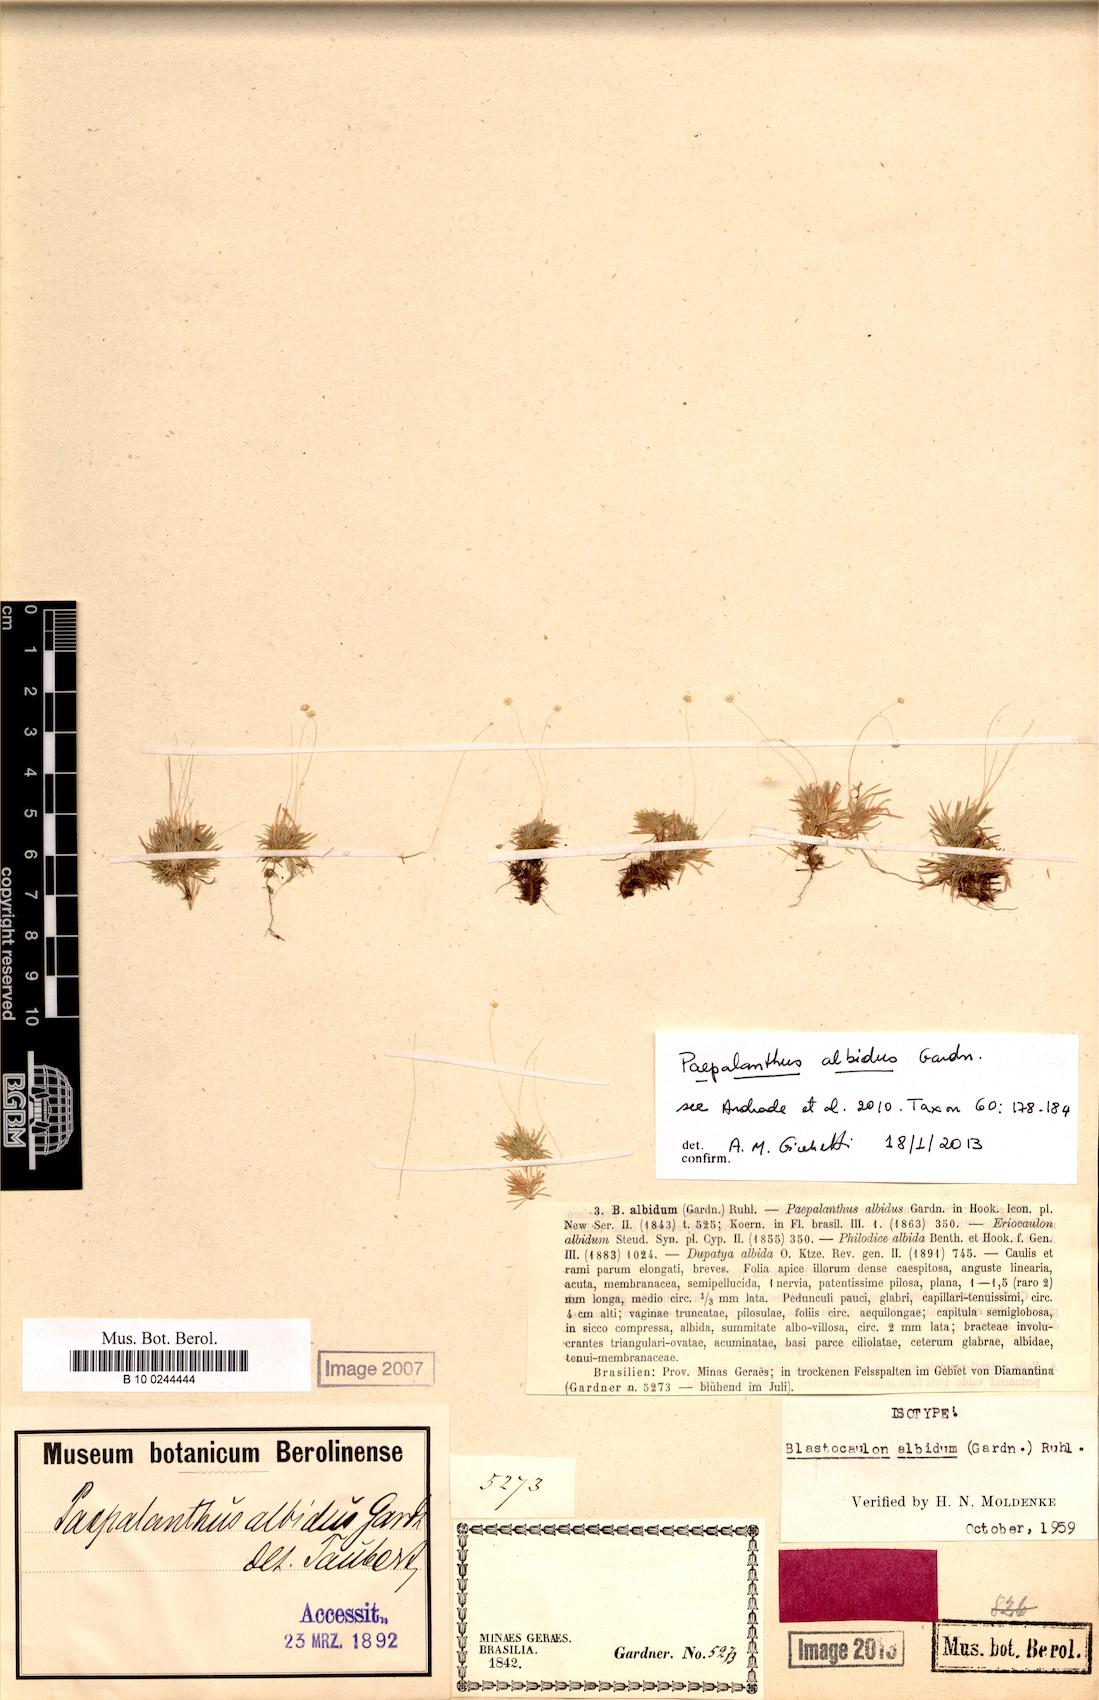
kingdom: Plantae
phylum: Tracheophyta
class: Liliopsida
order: Poales
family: Eriocaulaceae
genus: Paepalanthus
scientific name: Paepalanthus albidus
